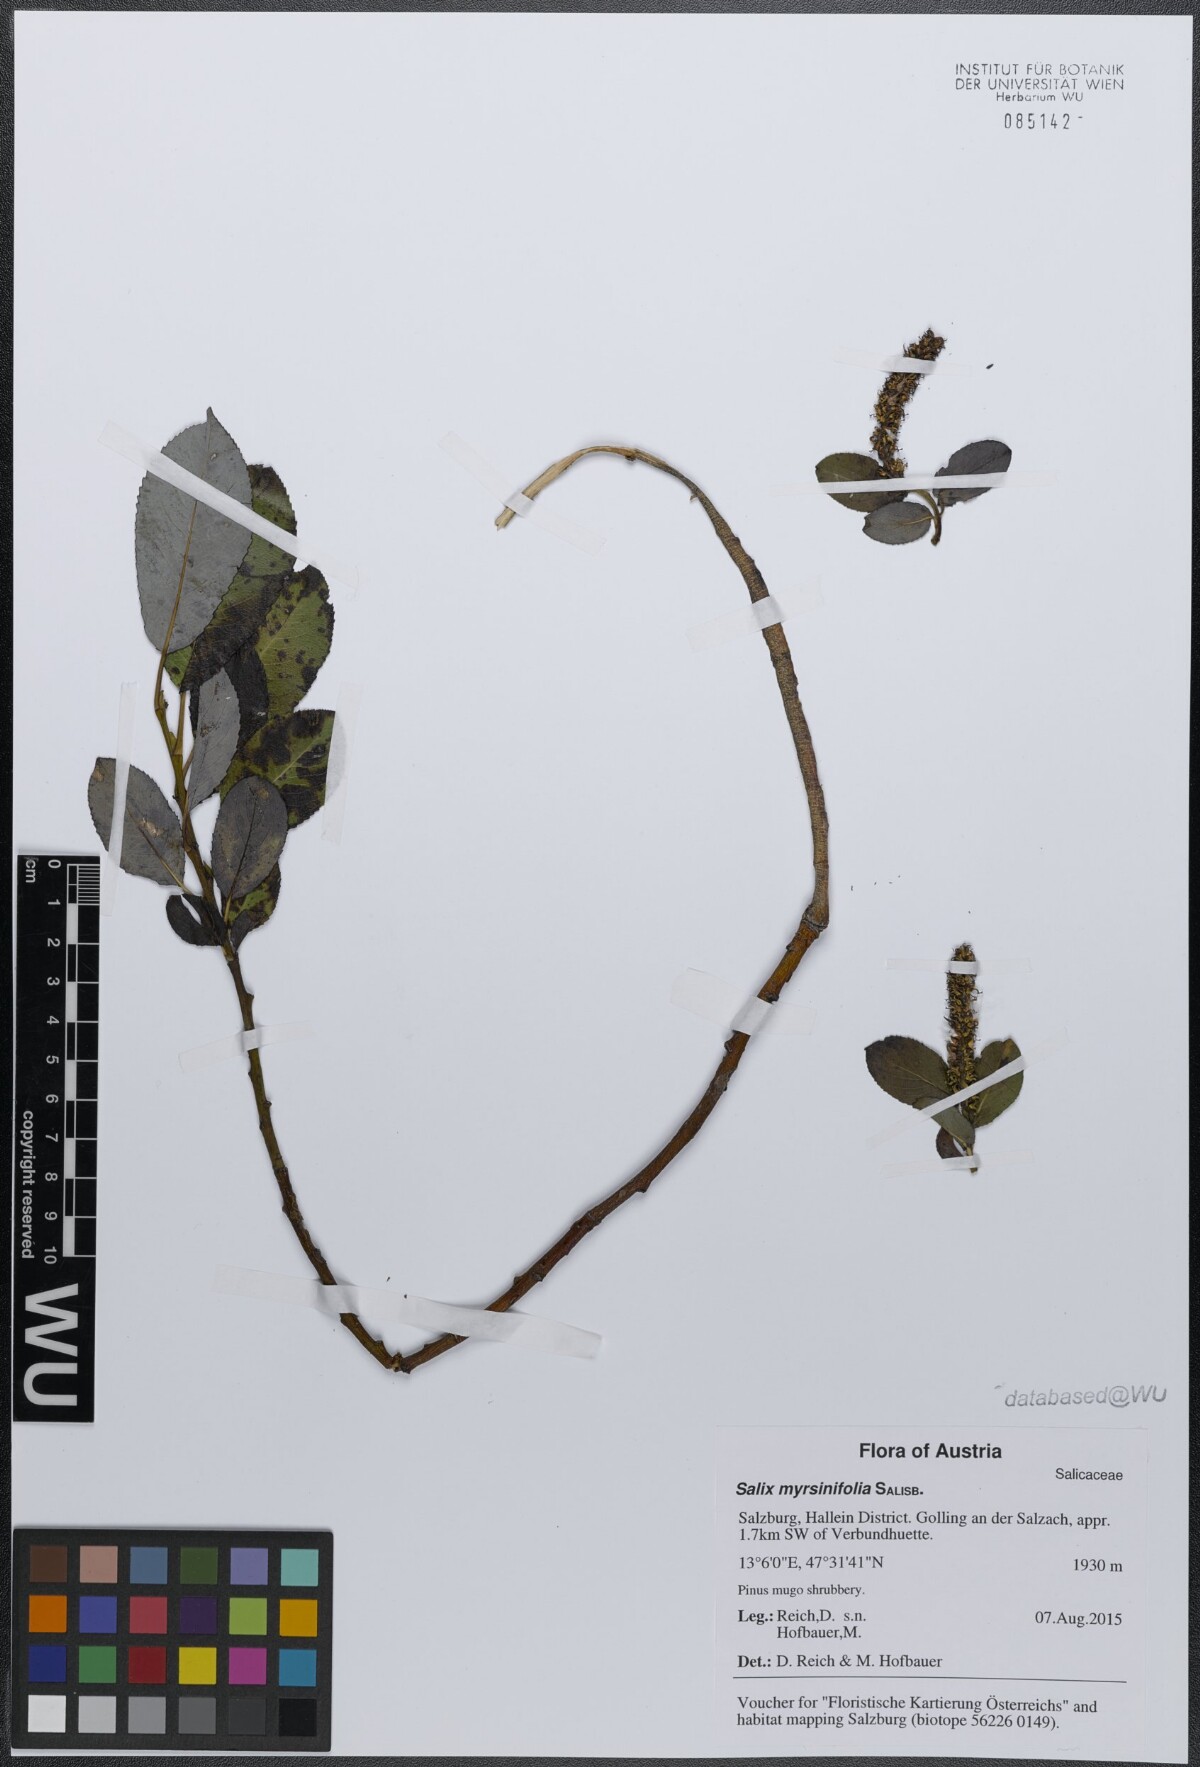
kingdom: Plantae
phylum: Tracheophyta
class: Magnoliopsida
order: Malpighiales
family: Salicaceae
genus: Salix
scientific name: Salix myrsinifolia
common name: Dark-leaved willow
